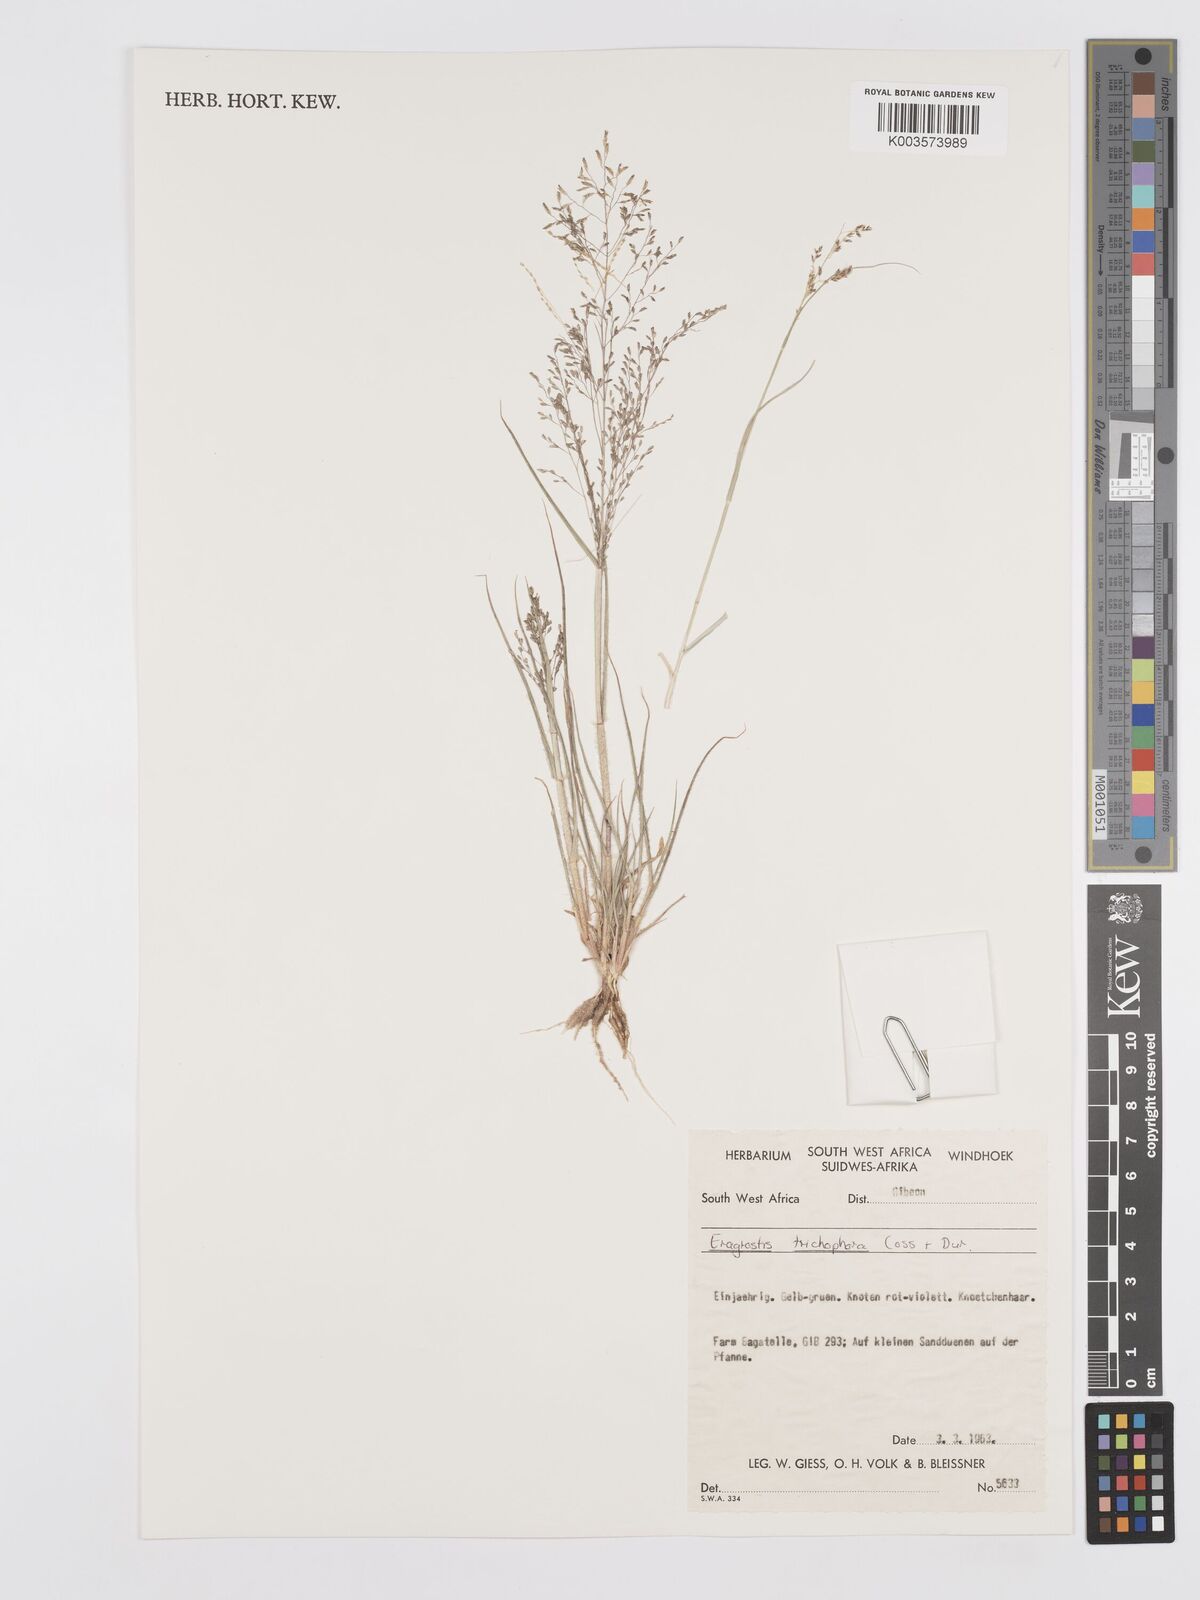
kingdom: Plantae
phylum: Tracheophyta
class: Liliopsida
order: Poales
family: Poaceae
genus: Eragrostis
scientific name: Eragrostis cylindriflora
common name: Cylinderflower lovegrass
